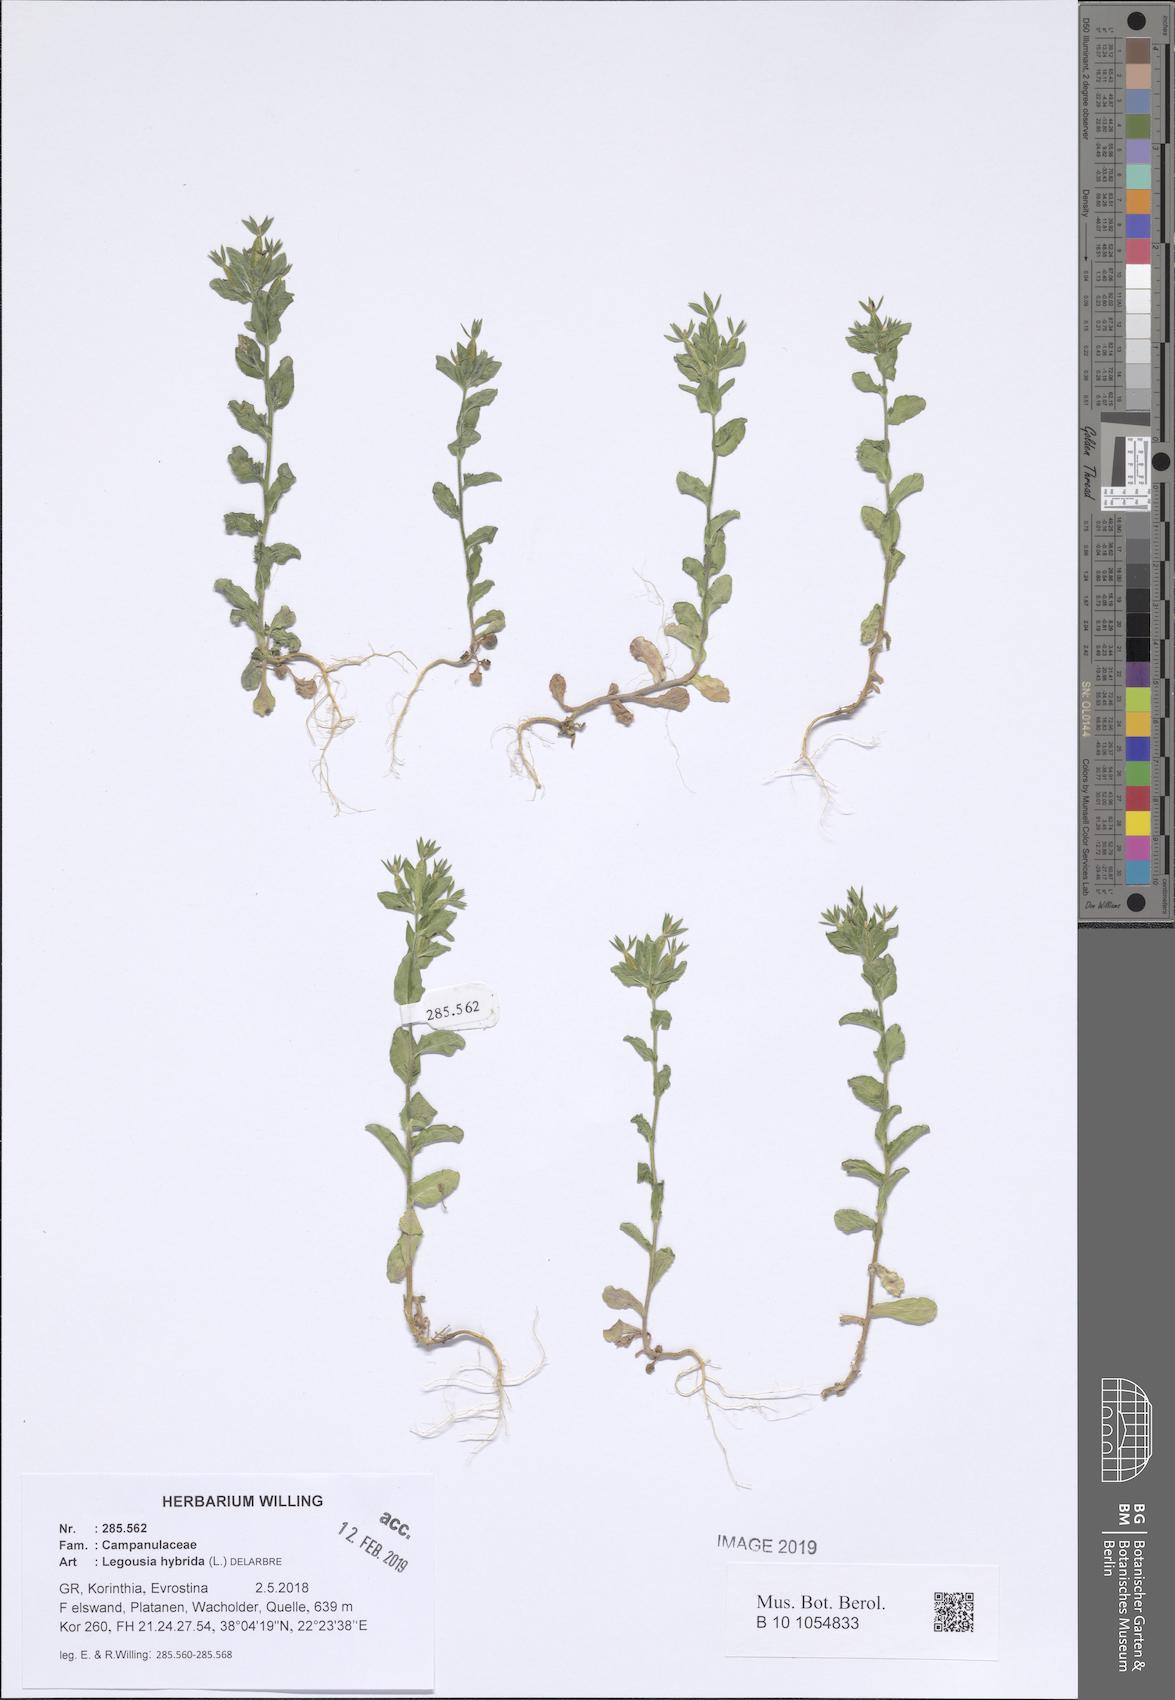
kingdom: Plantae
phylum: Tracheophyta
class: Magnoliopsida
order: Asterales
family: Campanulaceae
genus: Legousia
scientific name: Legousia hybrida
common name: Venus's-looking-glass
